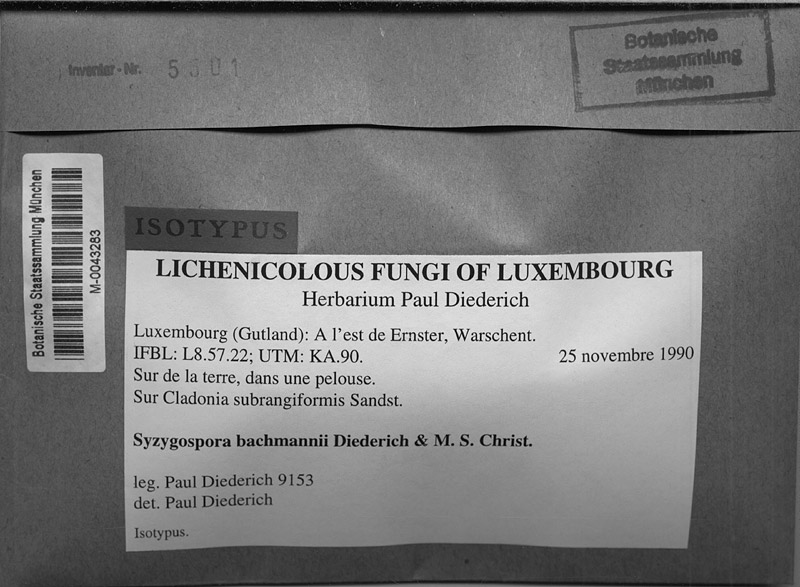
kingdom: Fungi
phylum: Ascomycota
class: Lecanoromycetes
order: Lecanorales
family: Cladoniaceae
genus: Cladonia
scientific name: Cladonia furcata
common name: Many-forked cladonia
